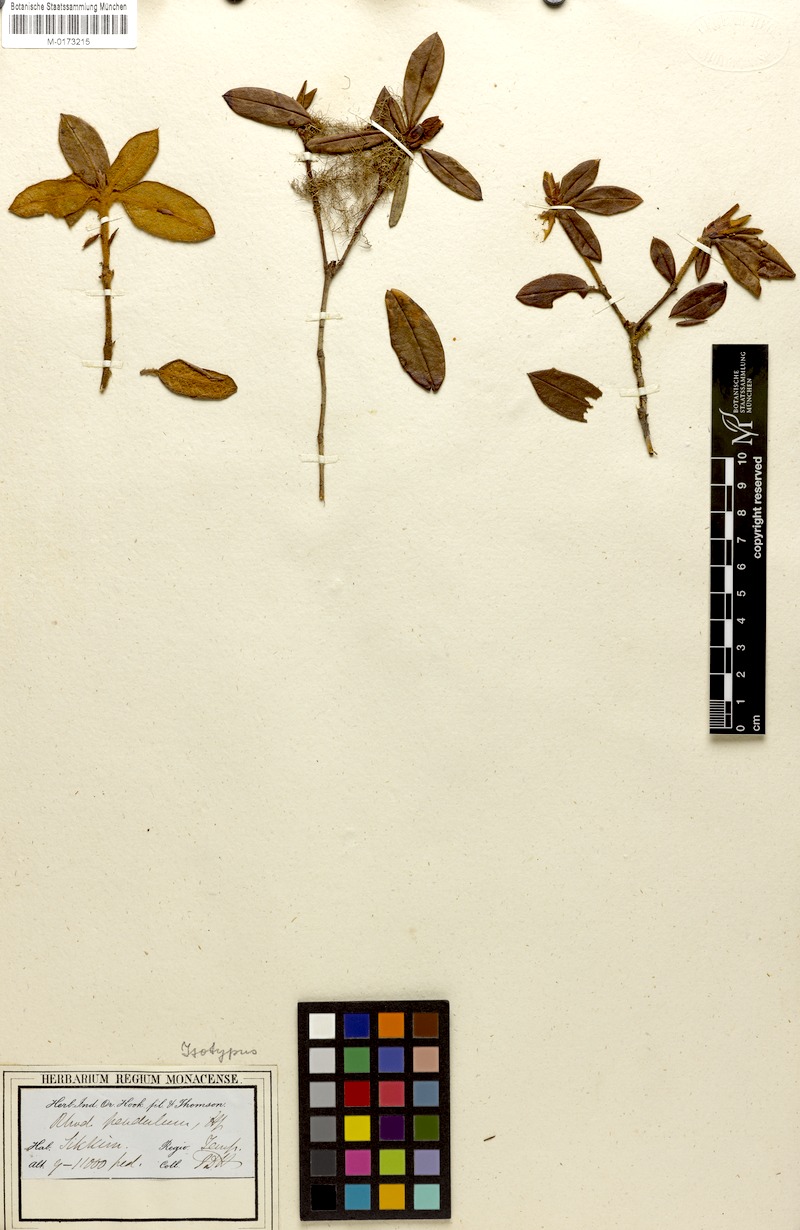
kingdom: Plantae
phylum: Tracheophyta
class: Magnoliopsida
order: Ericales
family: Ericaceae
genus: Rhododendron
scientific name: Rhododendron pendulum
